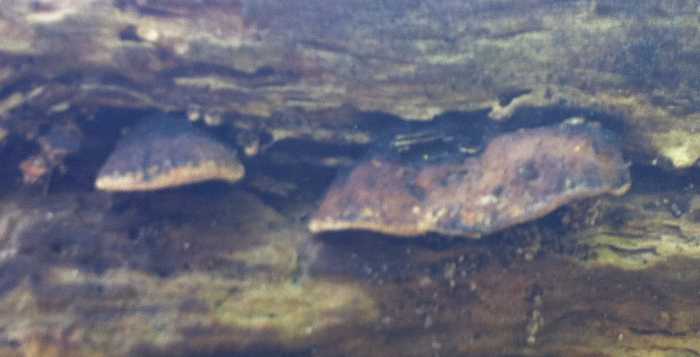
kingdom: Fungi
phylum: Basidiomycota
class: Agaricomycetes
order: Polyporales
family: Incrustoporiaceae
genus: Skeletocutis
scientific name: Skeletocutis nemoralis
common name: stor krystalporesvamp
